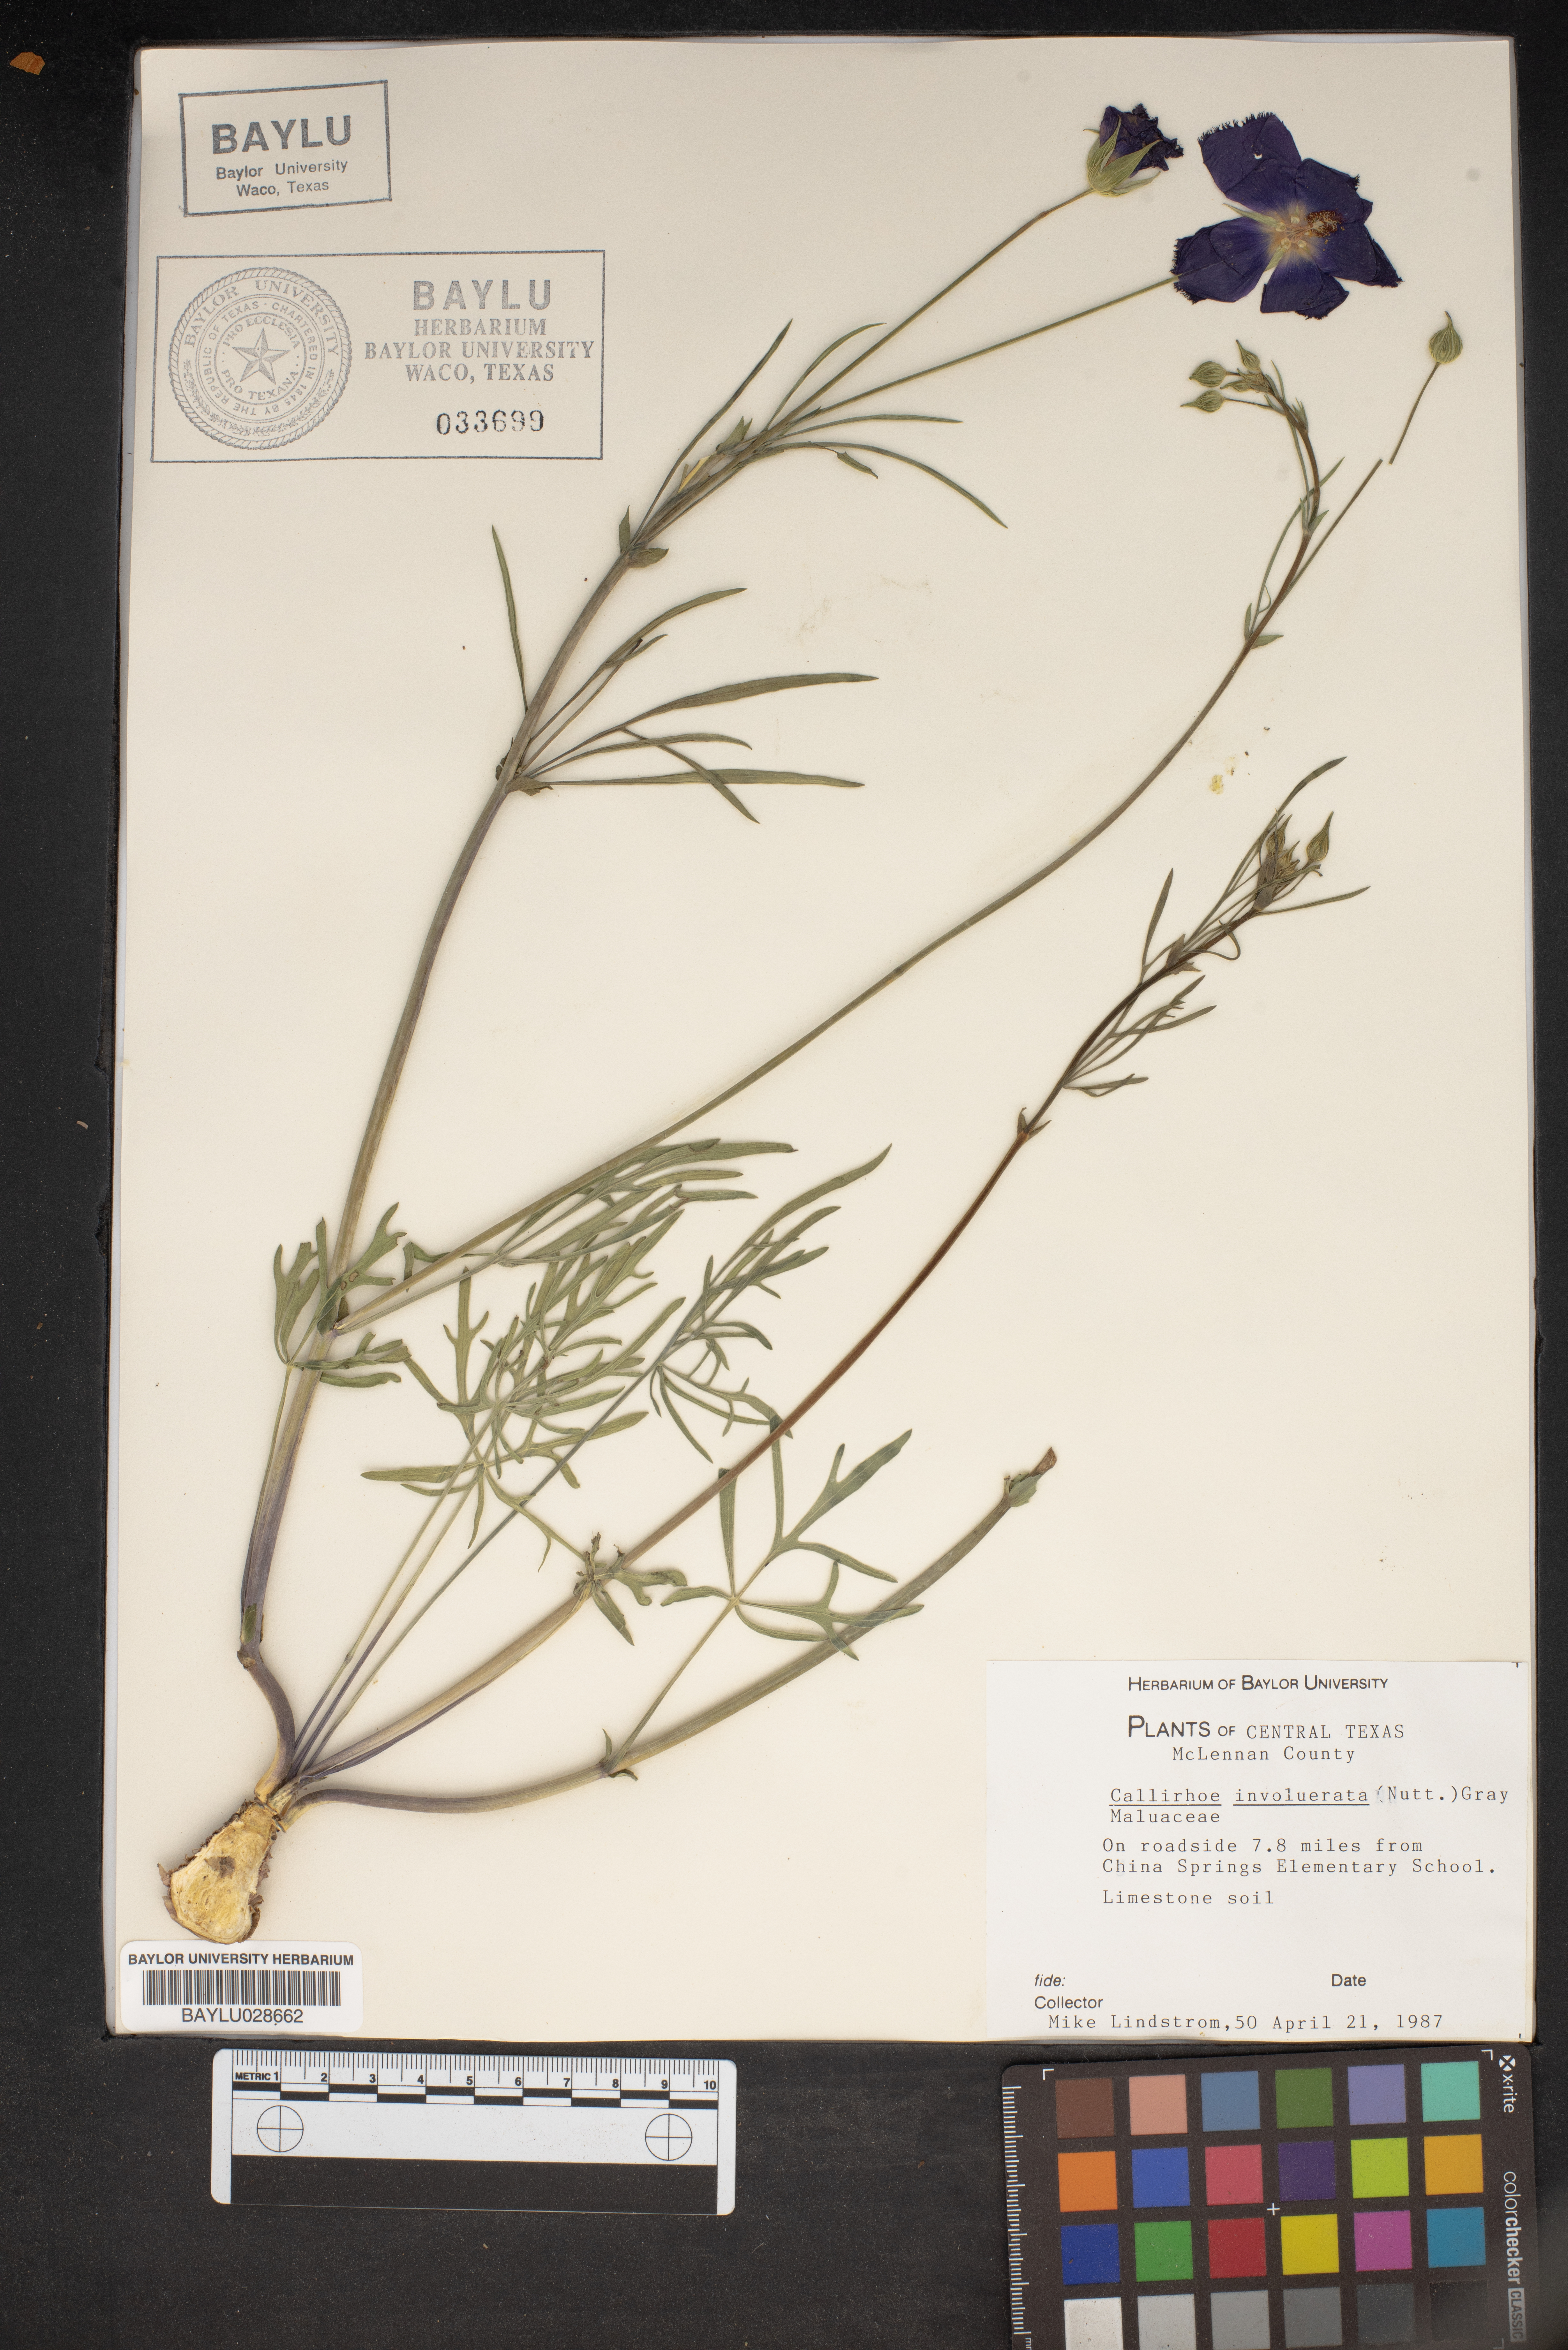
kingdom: Plantae
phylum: Tracheophyta
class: Magnoliopsida
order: Malvales
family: Malvaceae
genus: Callirhoe
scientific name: Callirhoe involucrata
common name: Purple poppy-mallow
